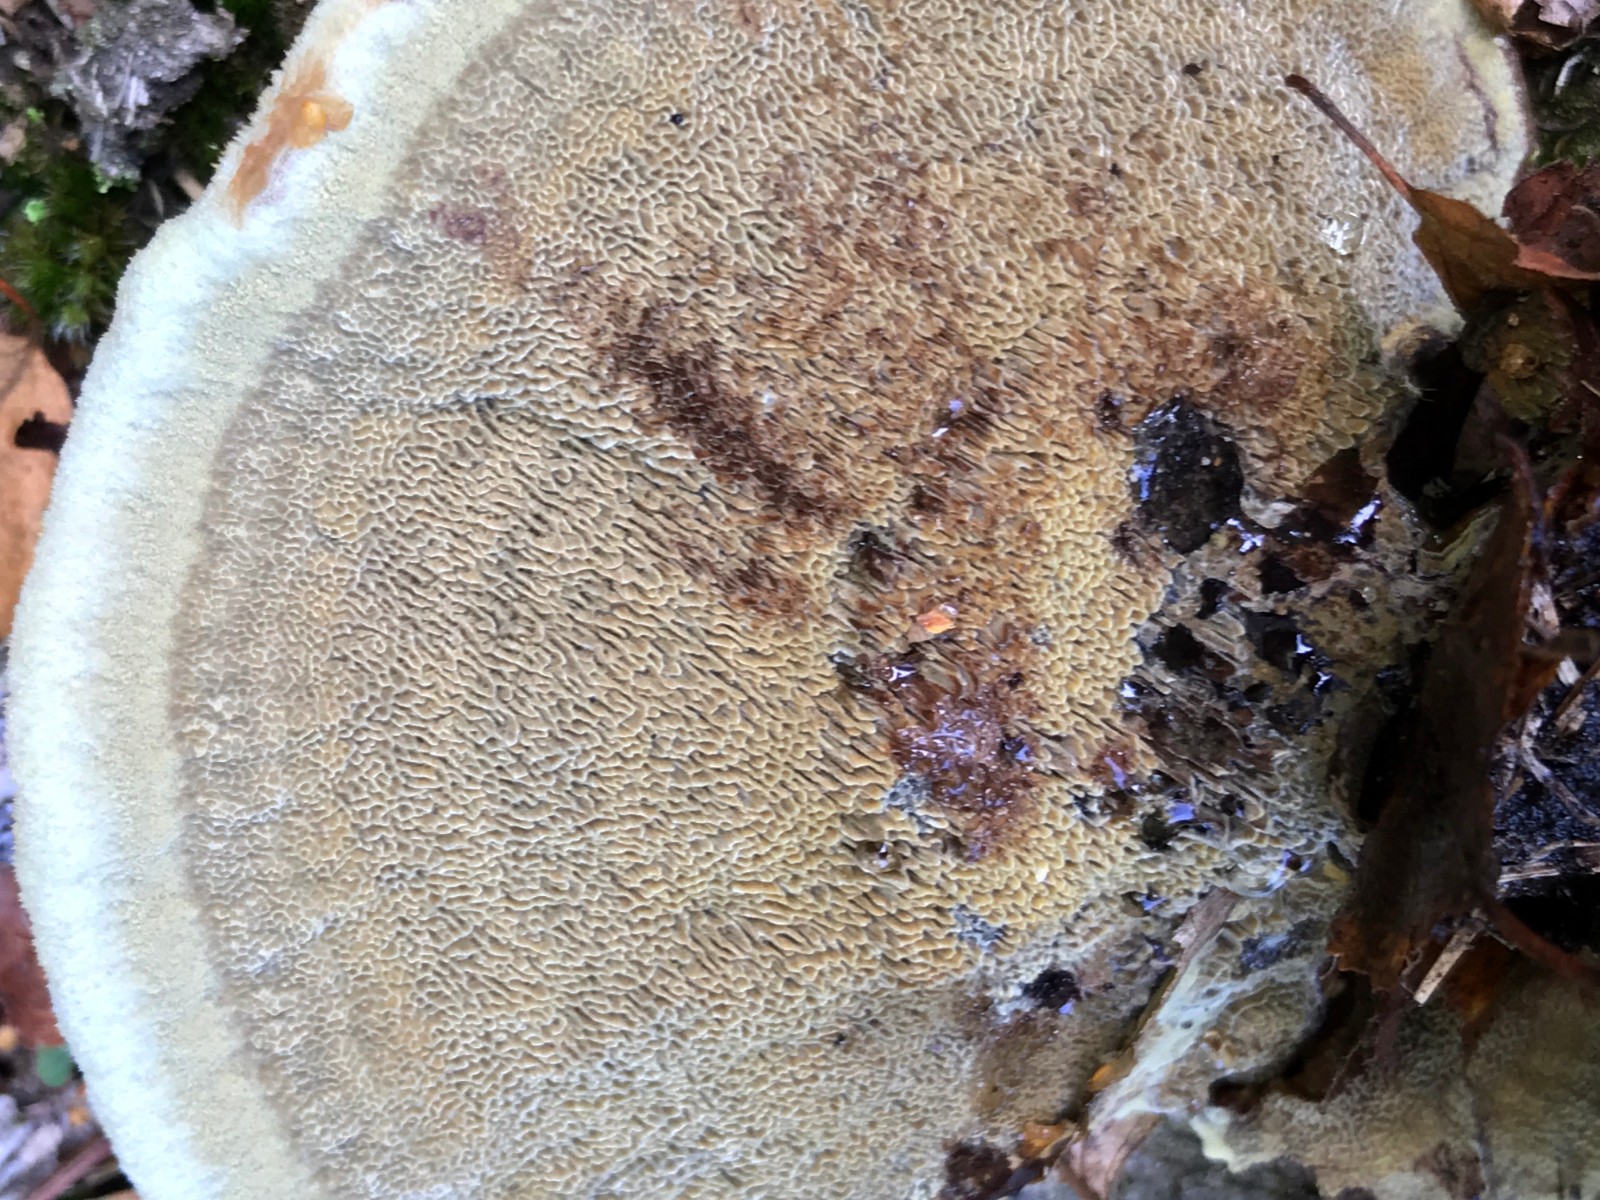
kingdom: Fungi
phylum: Basidiomycota
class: Agaricomycetes
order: Polyporales
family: Laetiporaceae
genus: Phaeolus
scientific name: Phaeolus schweinitzii
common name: brunporesvamp
